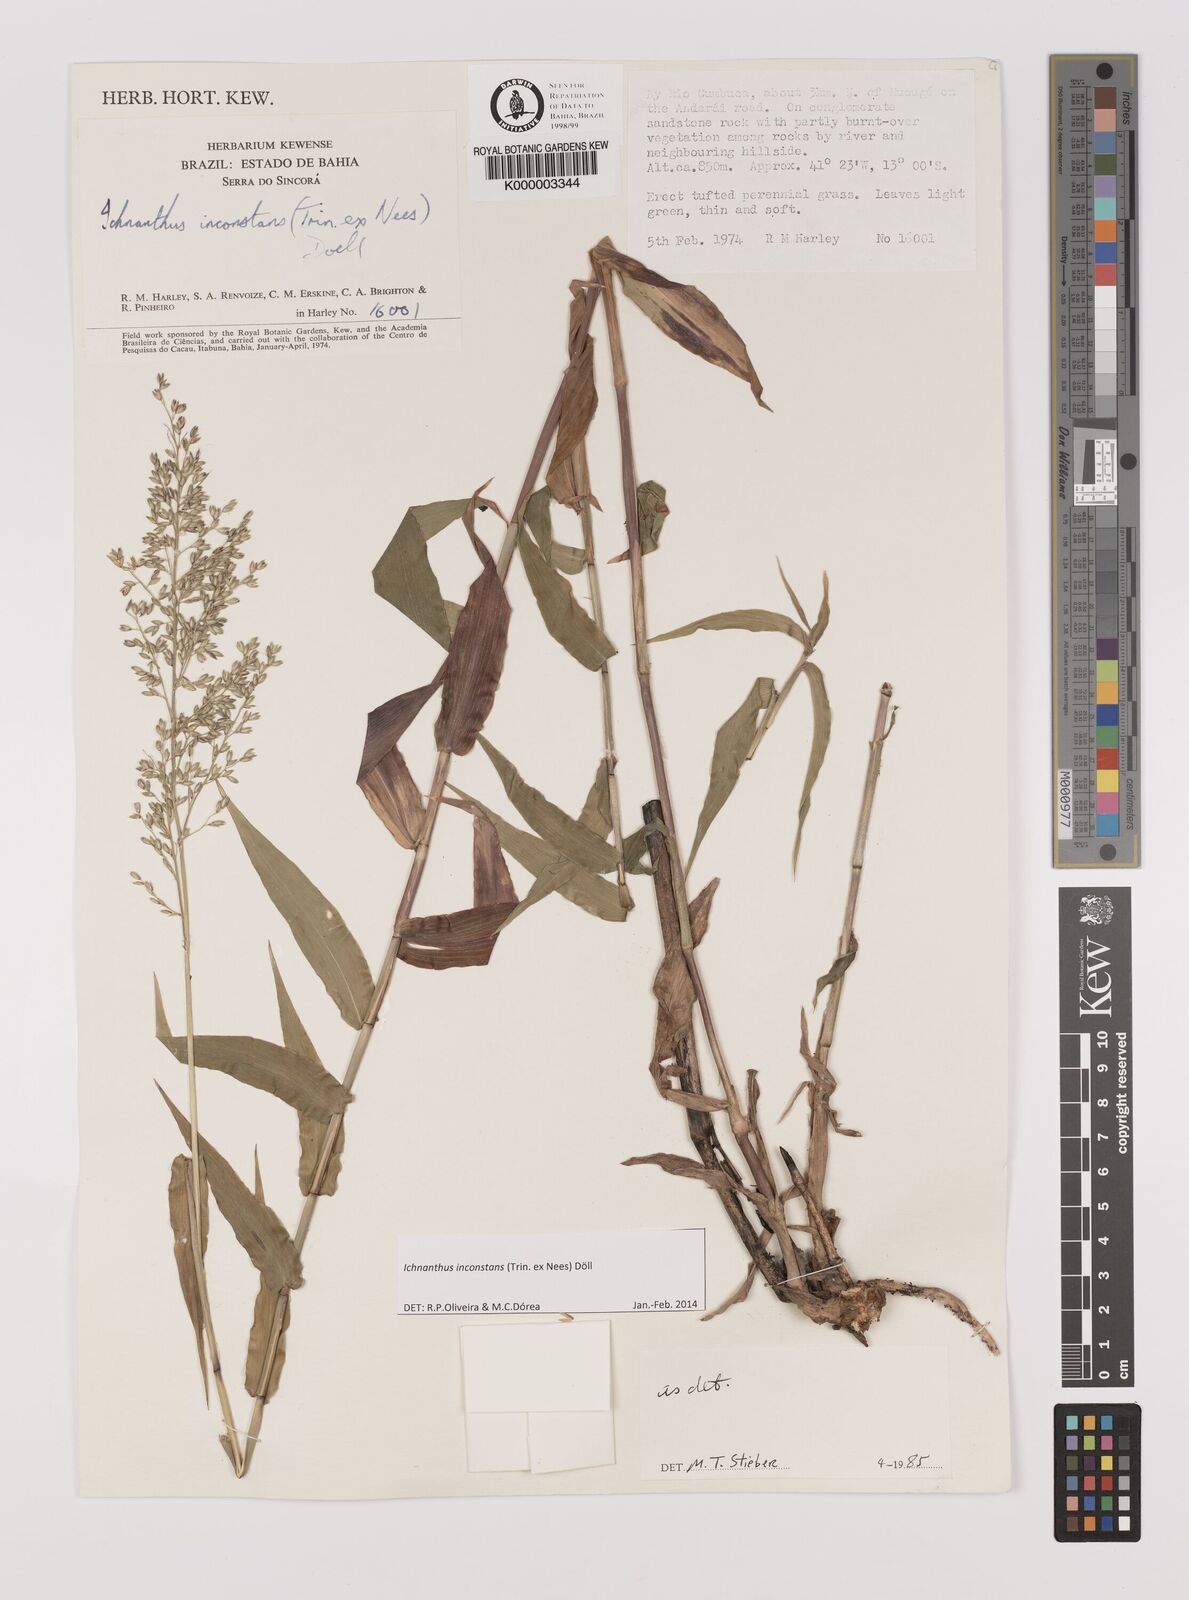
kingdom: Plantae
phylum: Tracheophyta
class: Liliopsida
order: Poales
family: Poaceae
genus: Ichnanthus
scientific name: Ichnanthus
